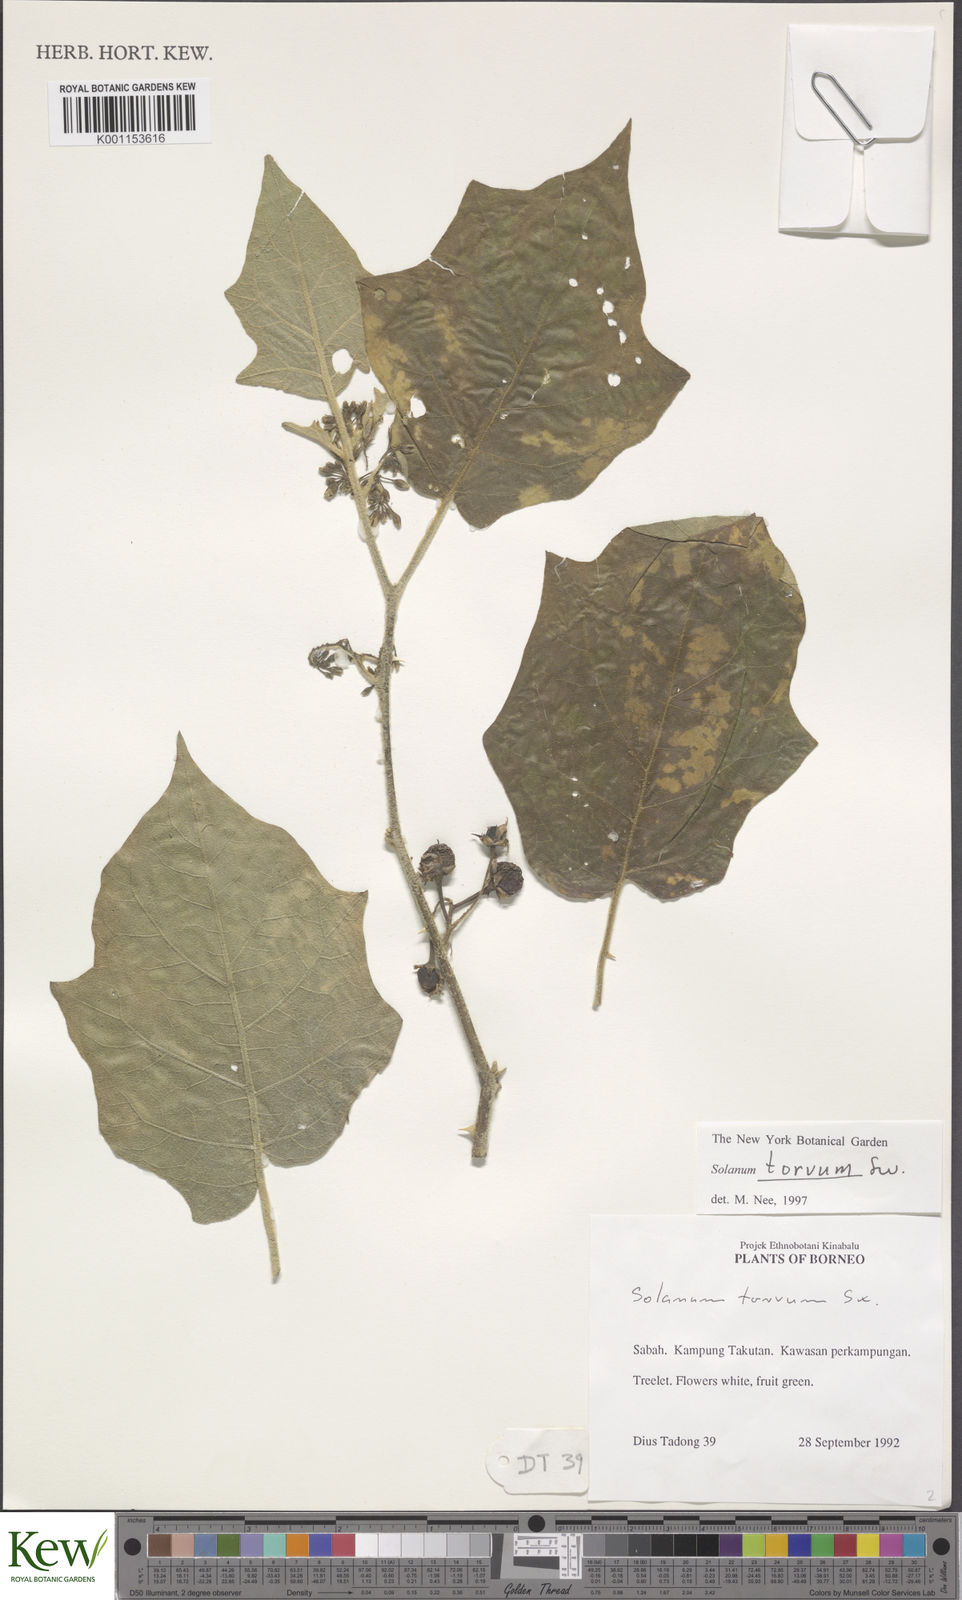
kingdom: Plantae
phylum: Tracheophyta
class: Magnoliopsida
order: Solanales
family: Solanaceae
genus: Solanum
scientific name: Solanum torvum
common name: Turkey berry
